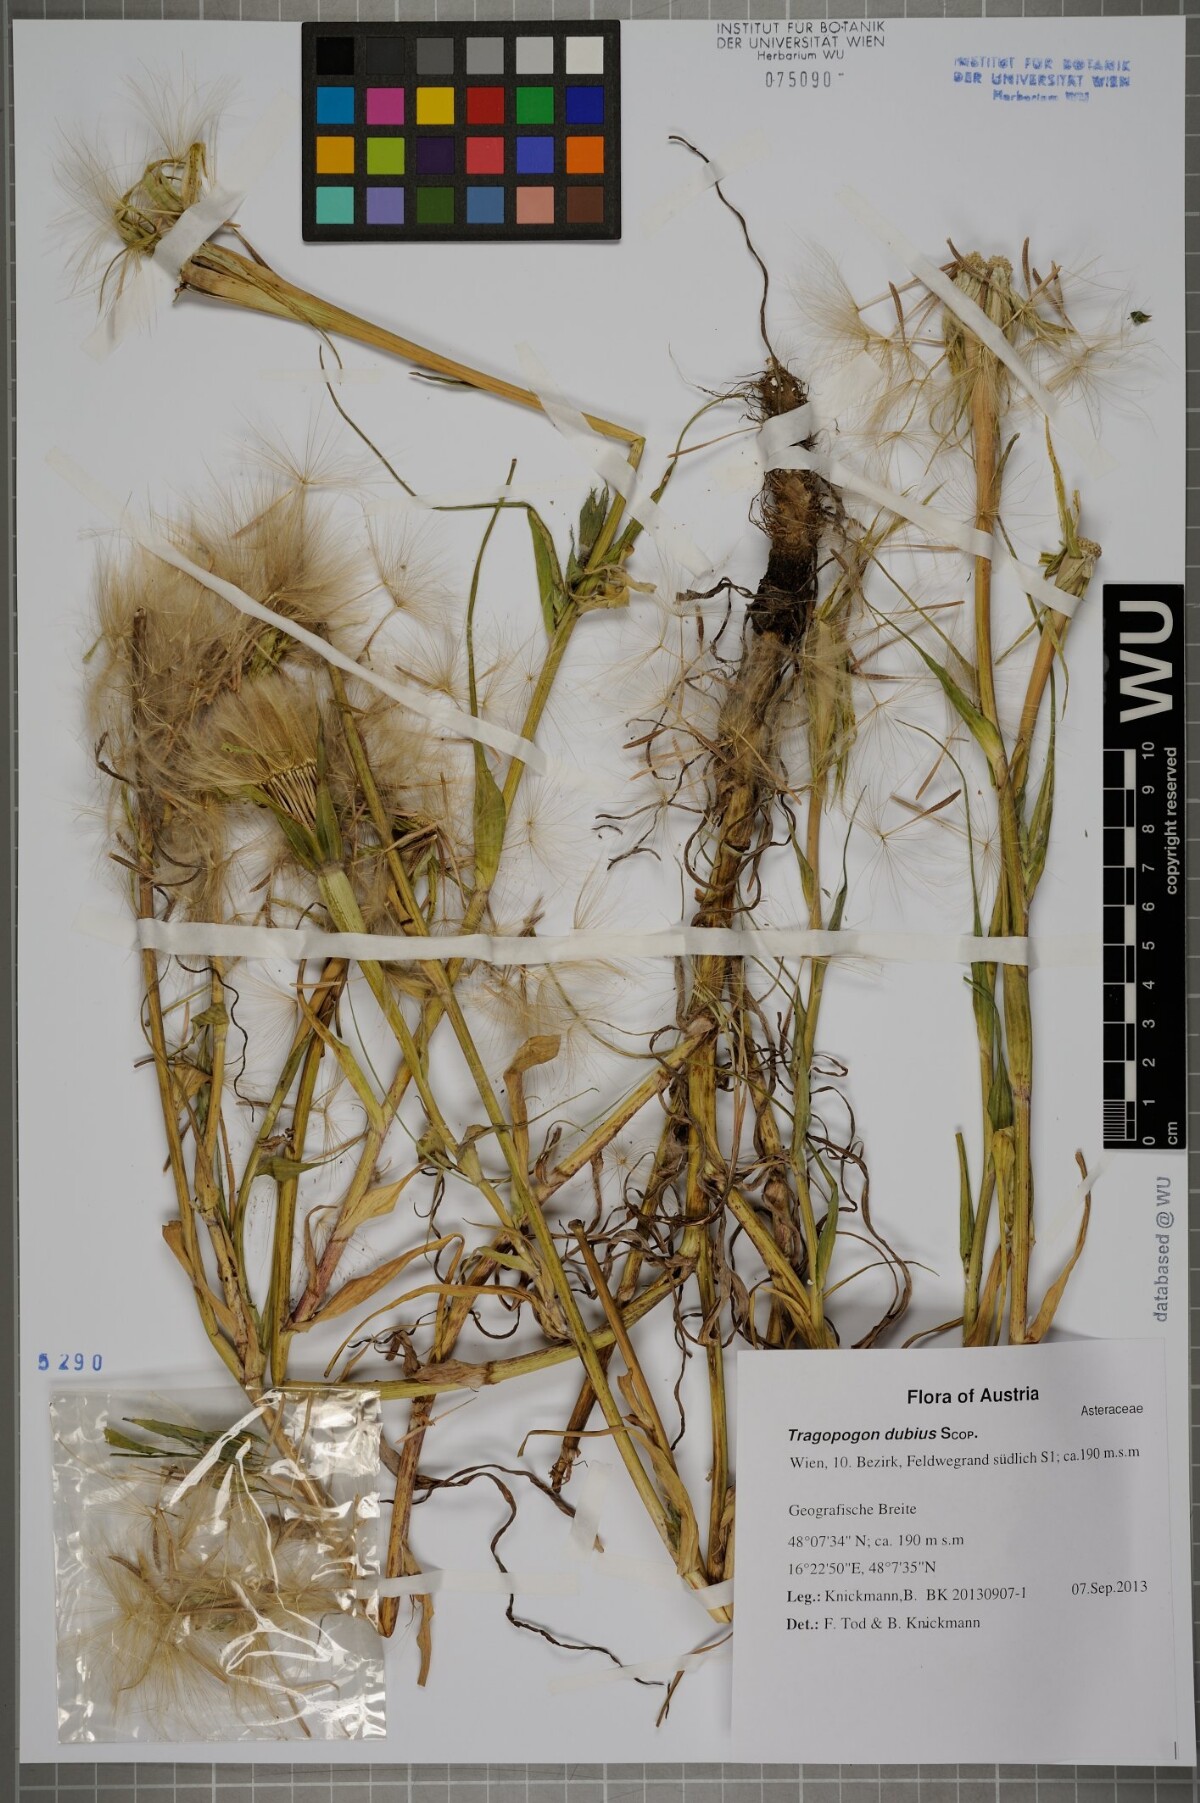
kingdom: Plantae
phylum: Tracheophyta
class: Magnoliopsida
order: Asterales
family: Asteraceae
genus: Tragopogon
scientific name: Tragopogon dubius
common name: Yellow salsify
